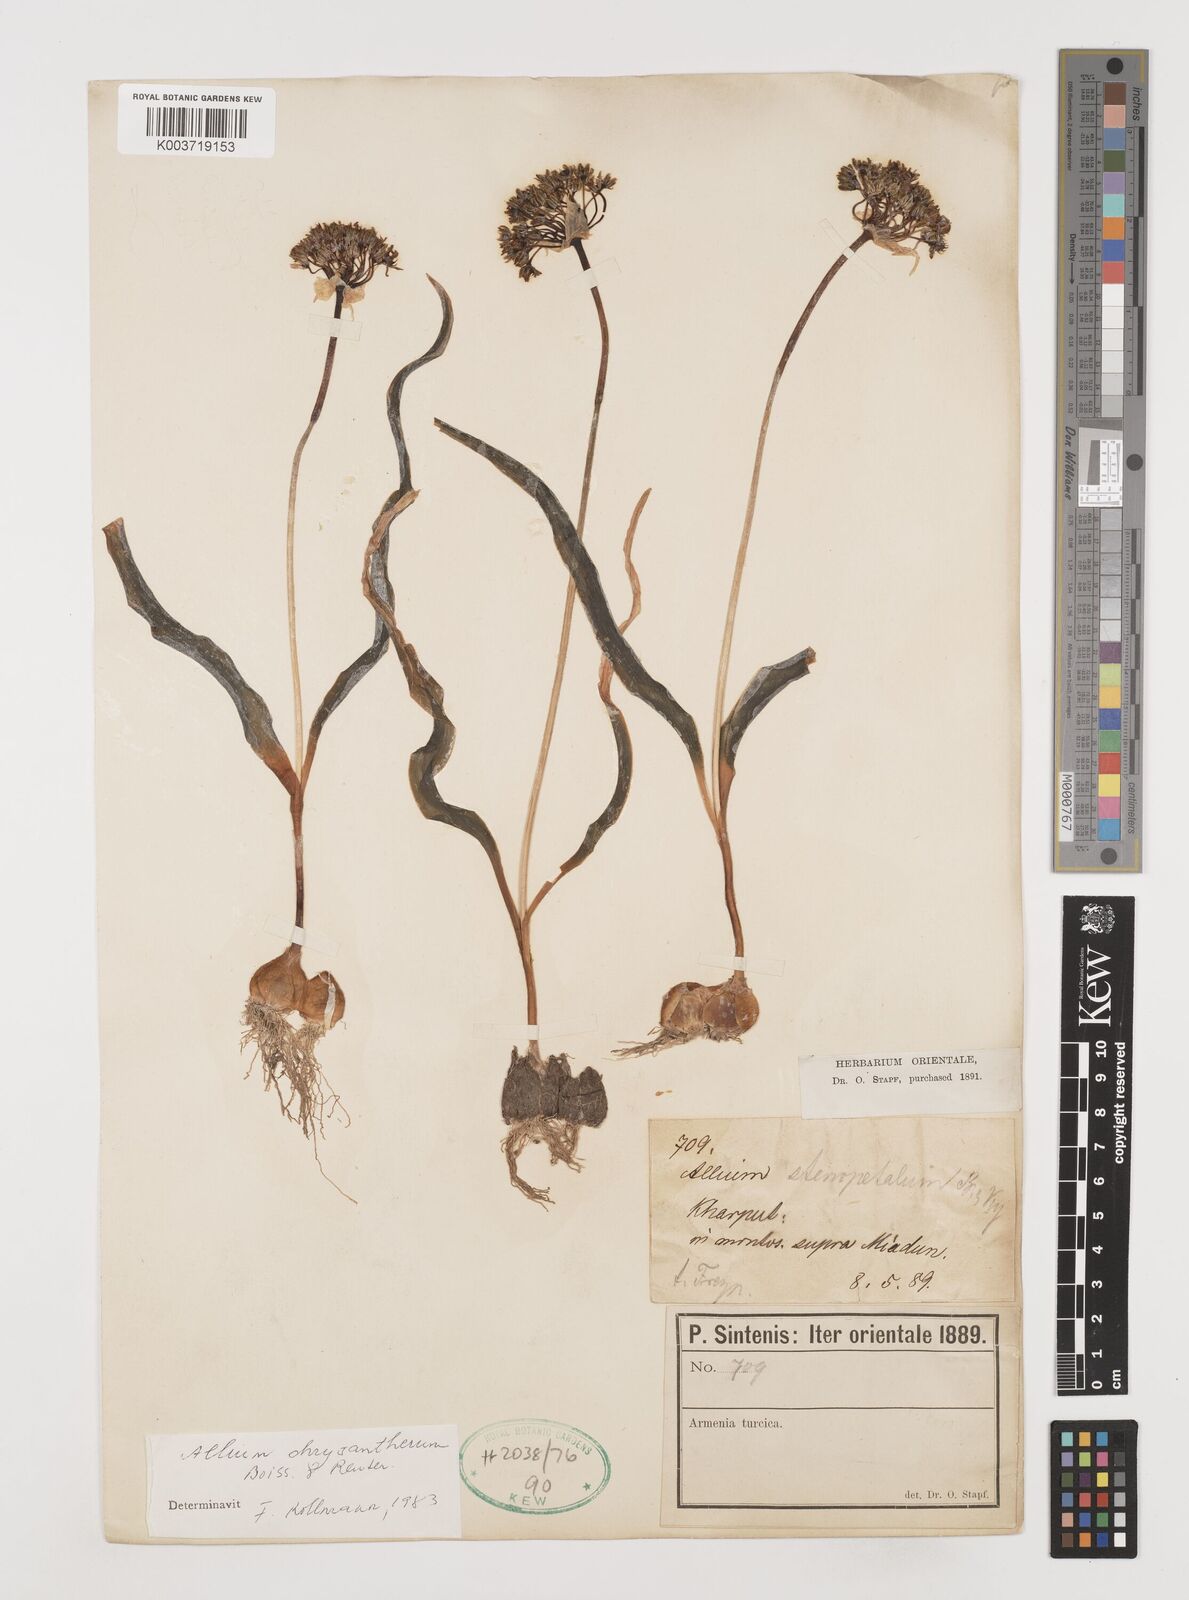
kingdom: Plantae
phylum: Tracheophyta
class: Liliopsida
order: Asparagales
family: Amaryllidaceae
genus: Allium
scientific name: Allium chrysantherum
